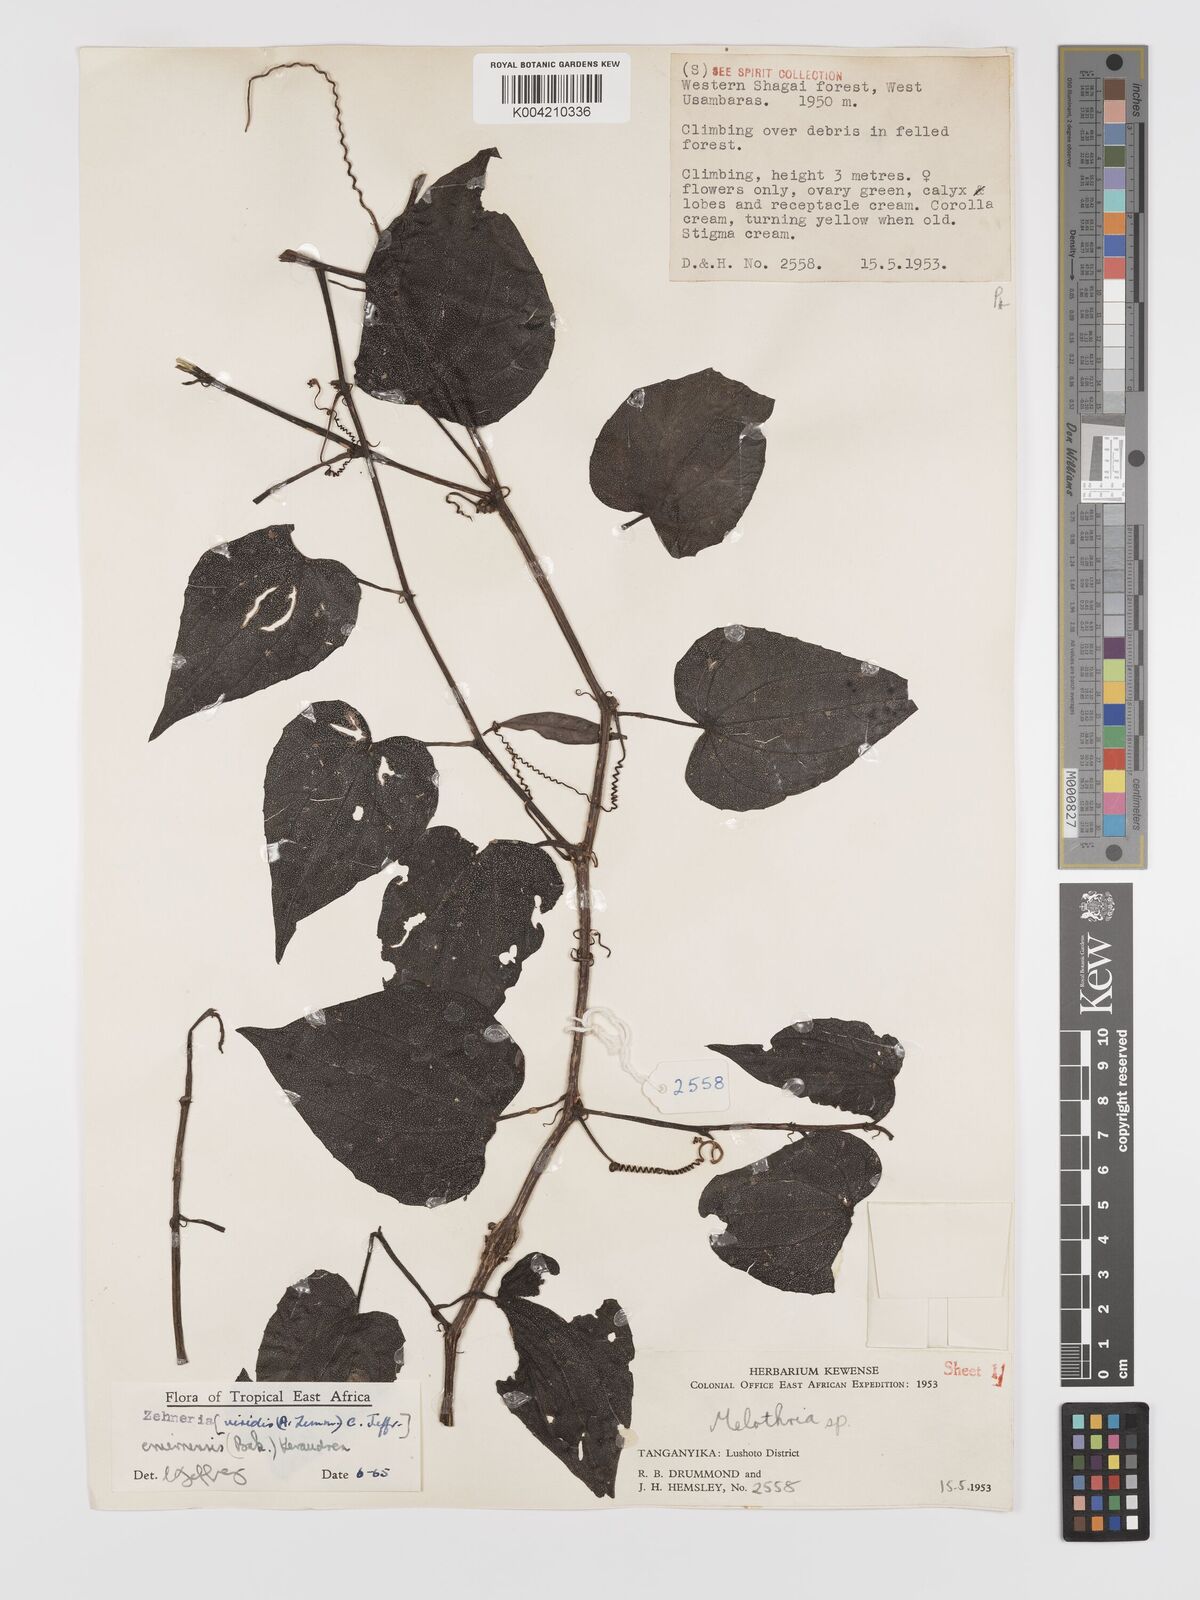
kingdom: Plantae
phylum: Tracheophyta
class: Magnoliopsida
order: Cucurbitales
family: Cucurbitaceae
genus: Zehneria
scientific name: Zehneria emirnensis
